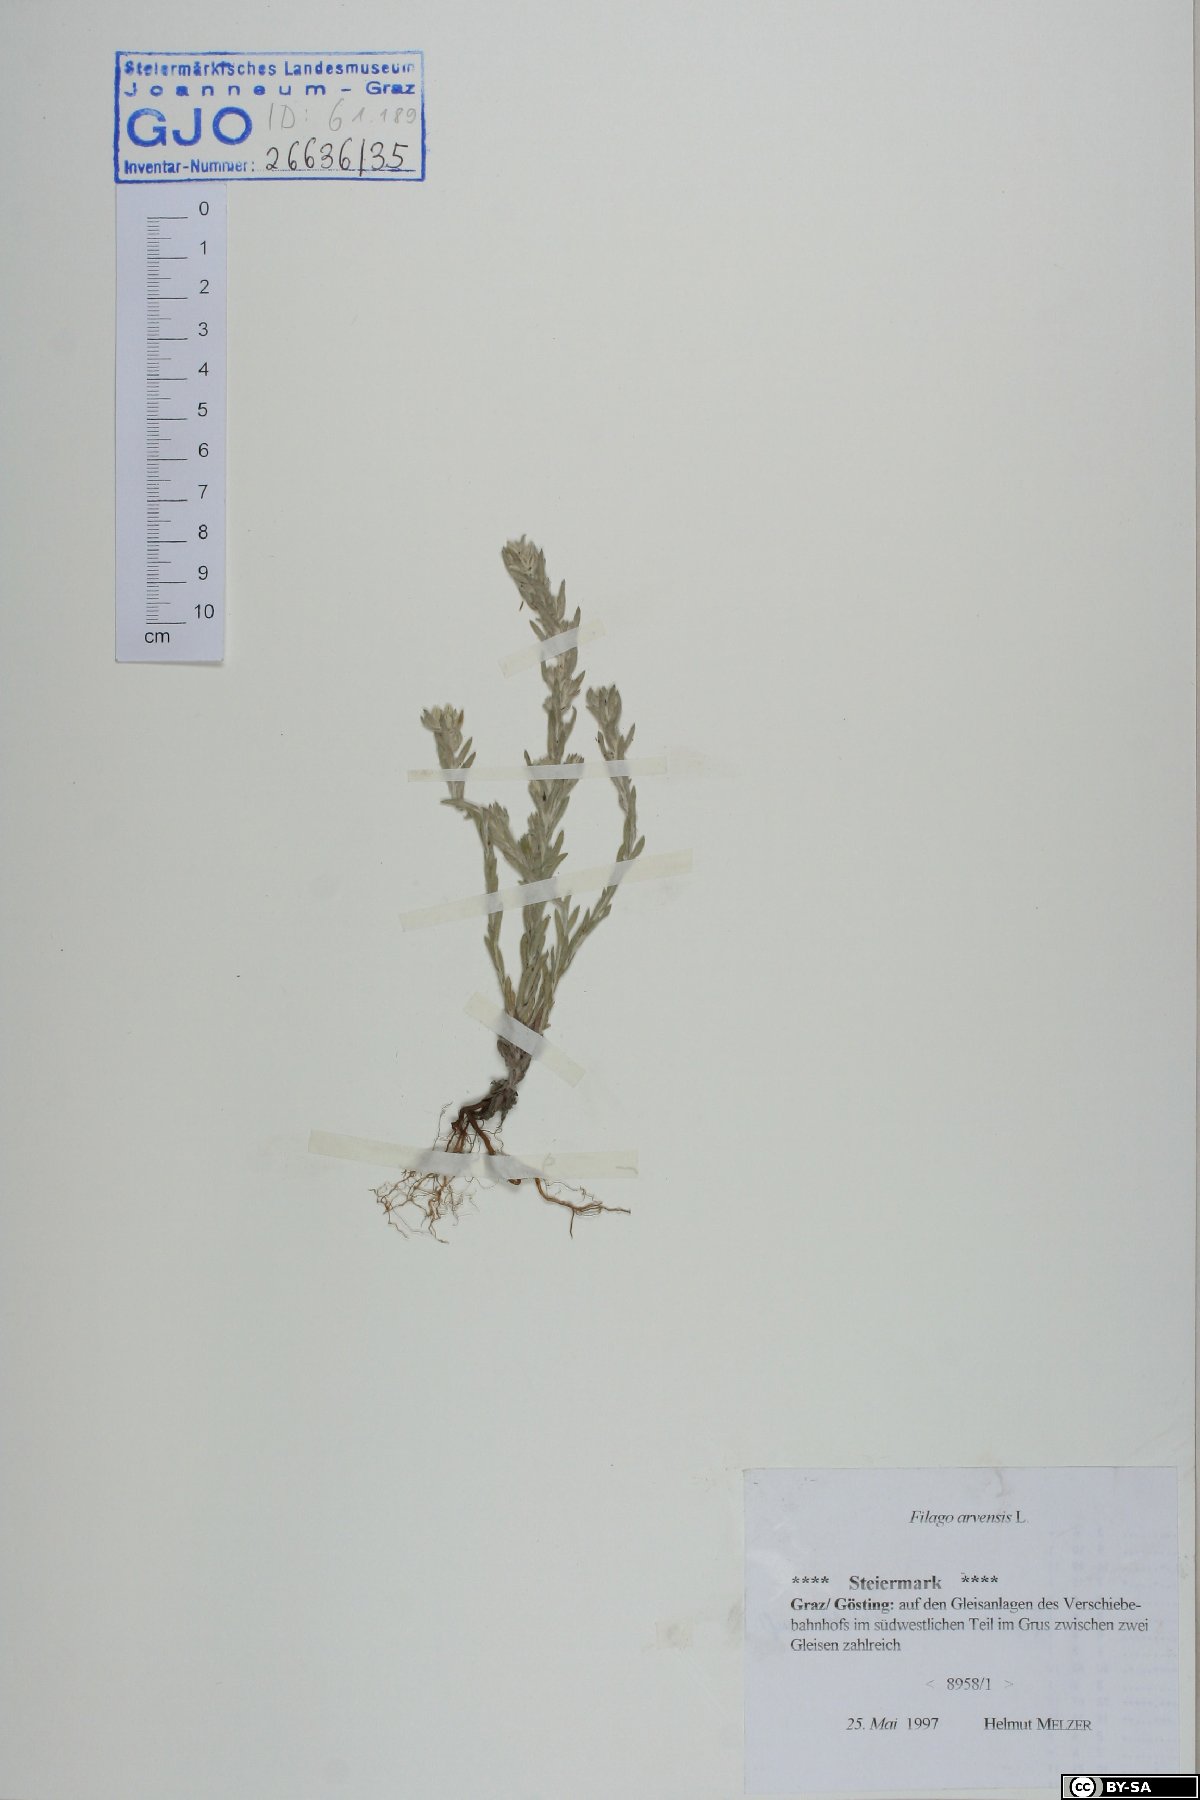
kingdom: Plantae
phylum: Tracheophyta
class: Magnoliopsida
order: Asterales
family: Asteraceae
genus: Filago
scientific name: Filago arvensis
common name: Field cudweed
